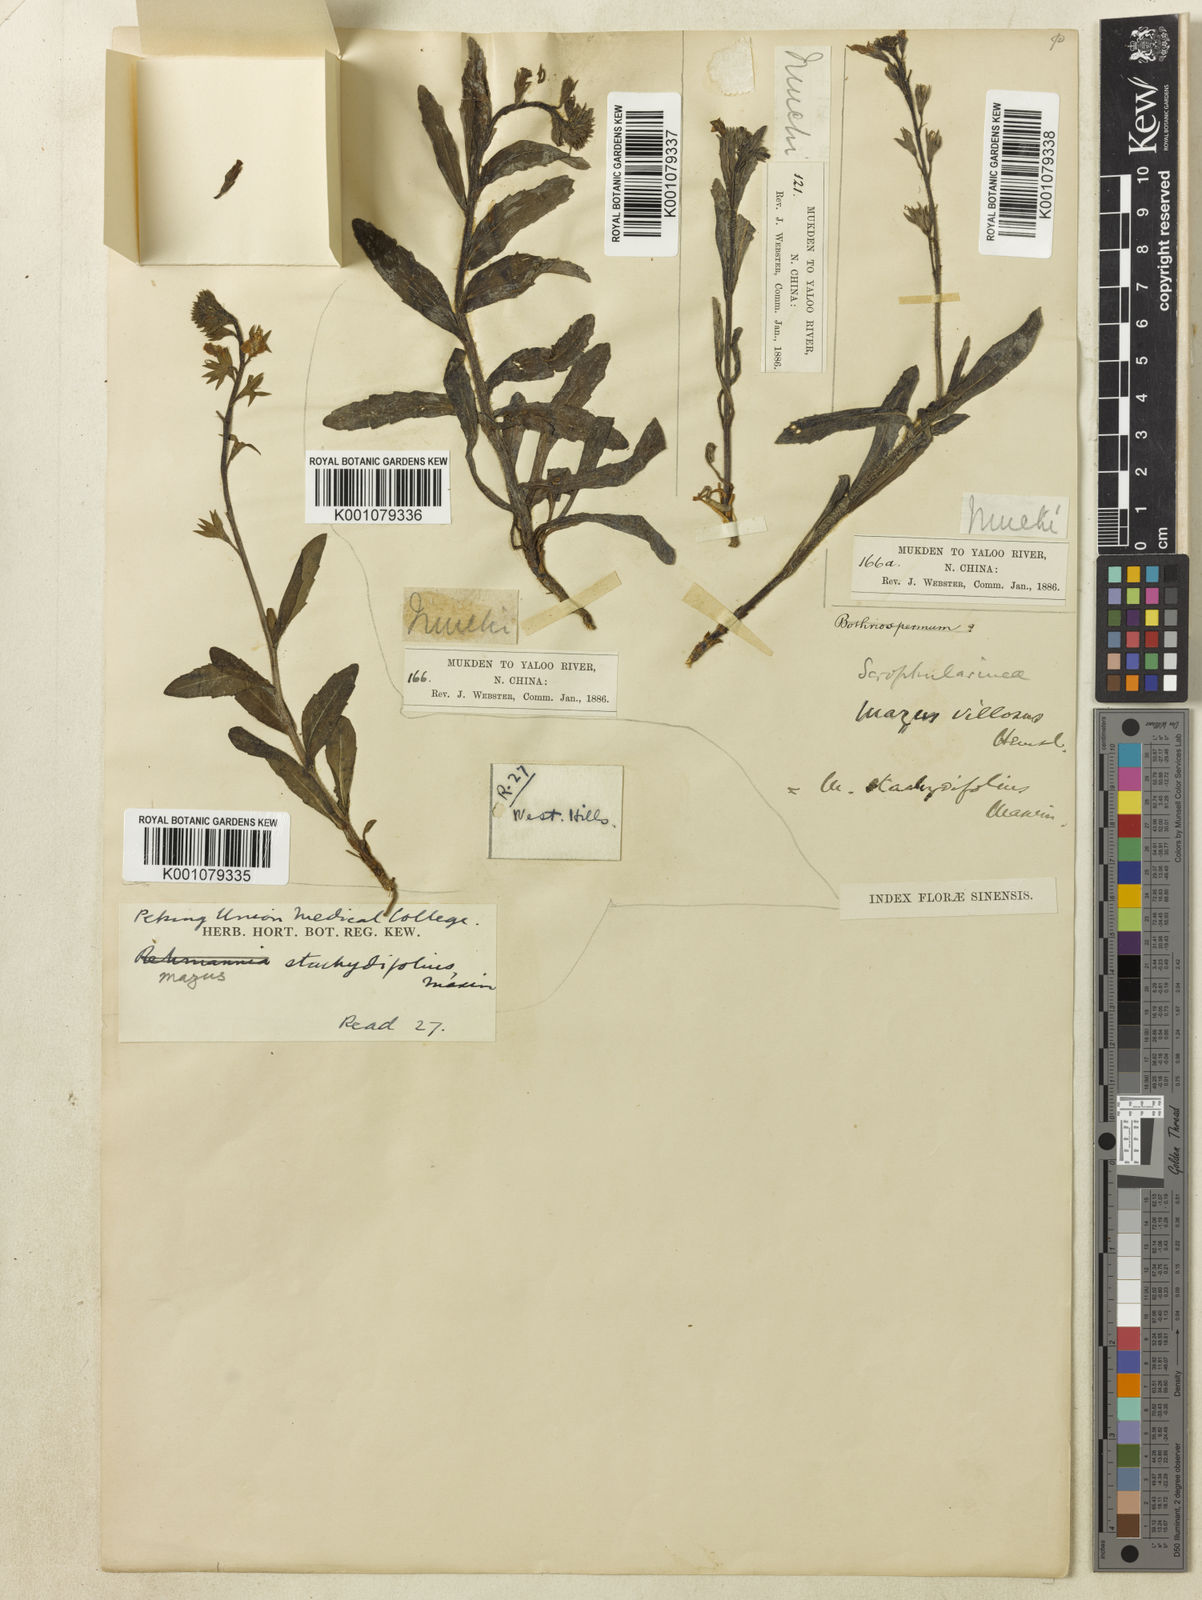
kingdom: Plantae
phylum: Tracheophyta
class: Magnoliopsida
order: Lamiales
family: Mazaceae
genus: Mazus
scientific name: Mazus stachydifolius
